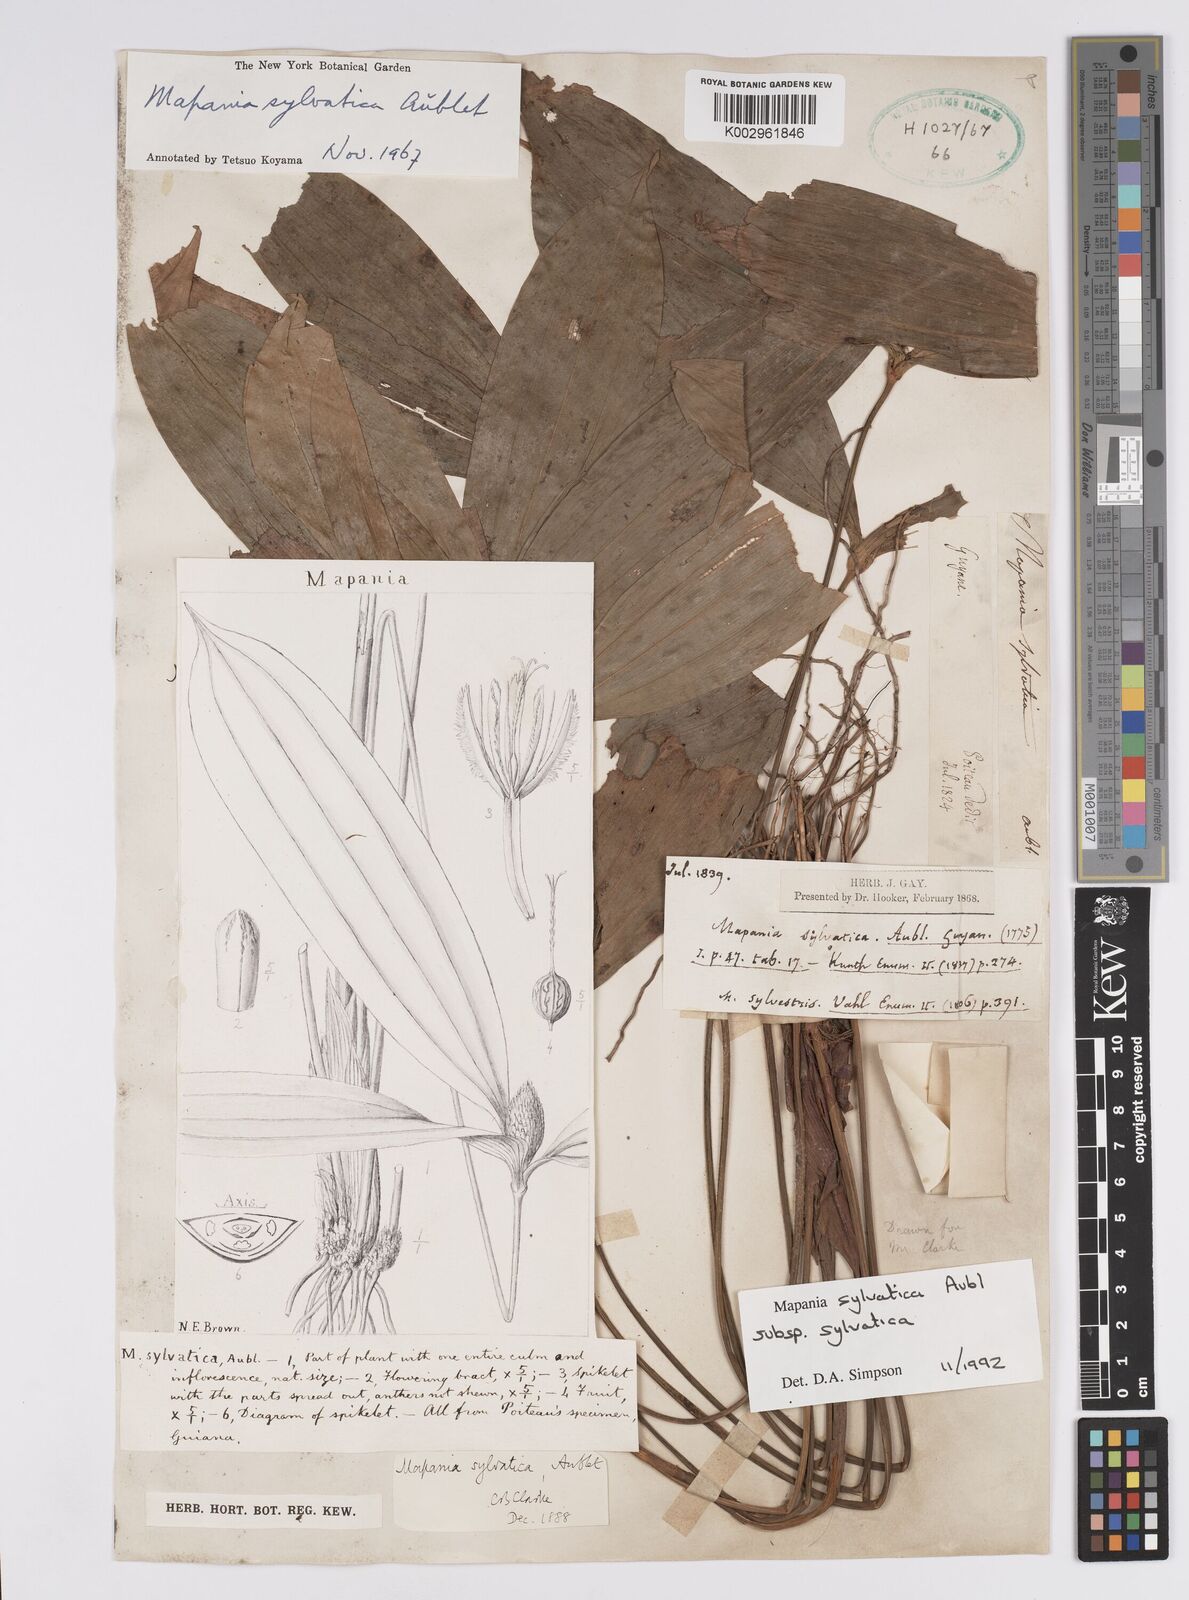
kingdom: Plantae
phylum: Tracheophyta
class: Liliopsida
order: Poales
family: Cyperaceae
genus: Mapania
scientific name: Mapania sylvatica
